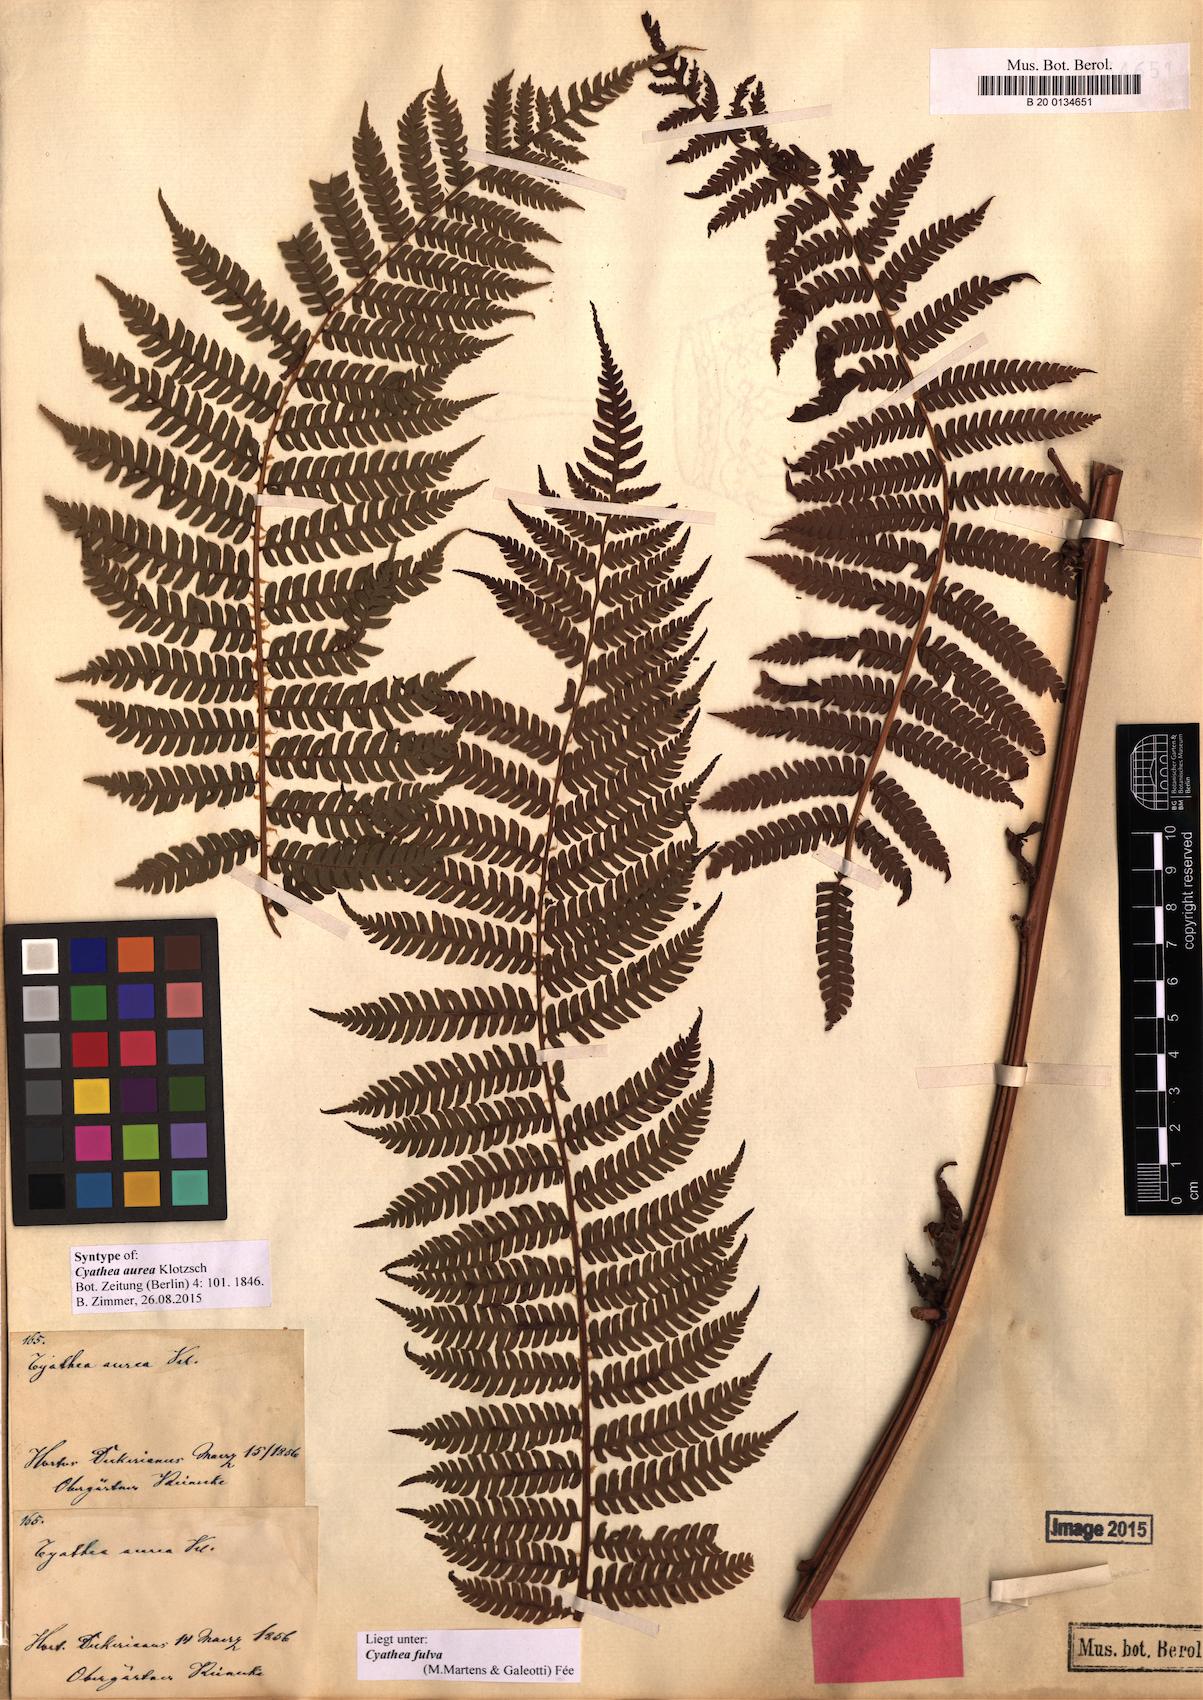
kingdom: Plantae
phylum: Tracheophyta
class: Polypodiopsida
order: Cyatheales
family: Cyatheaceae
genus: Cyathea
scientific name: Cyathea fulva
